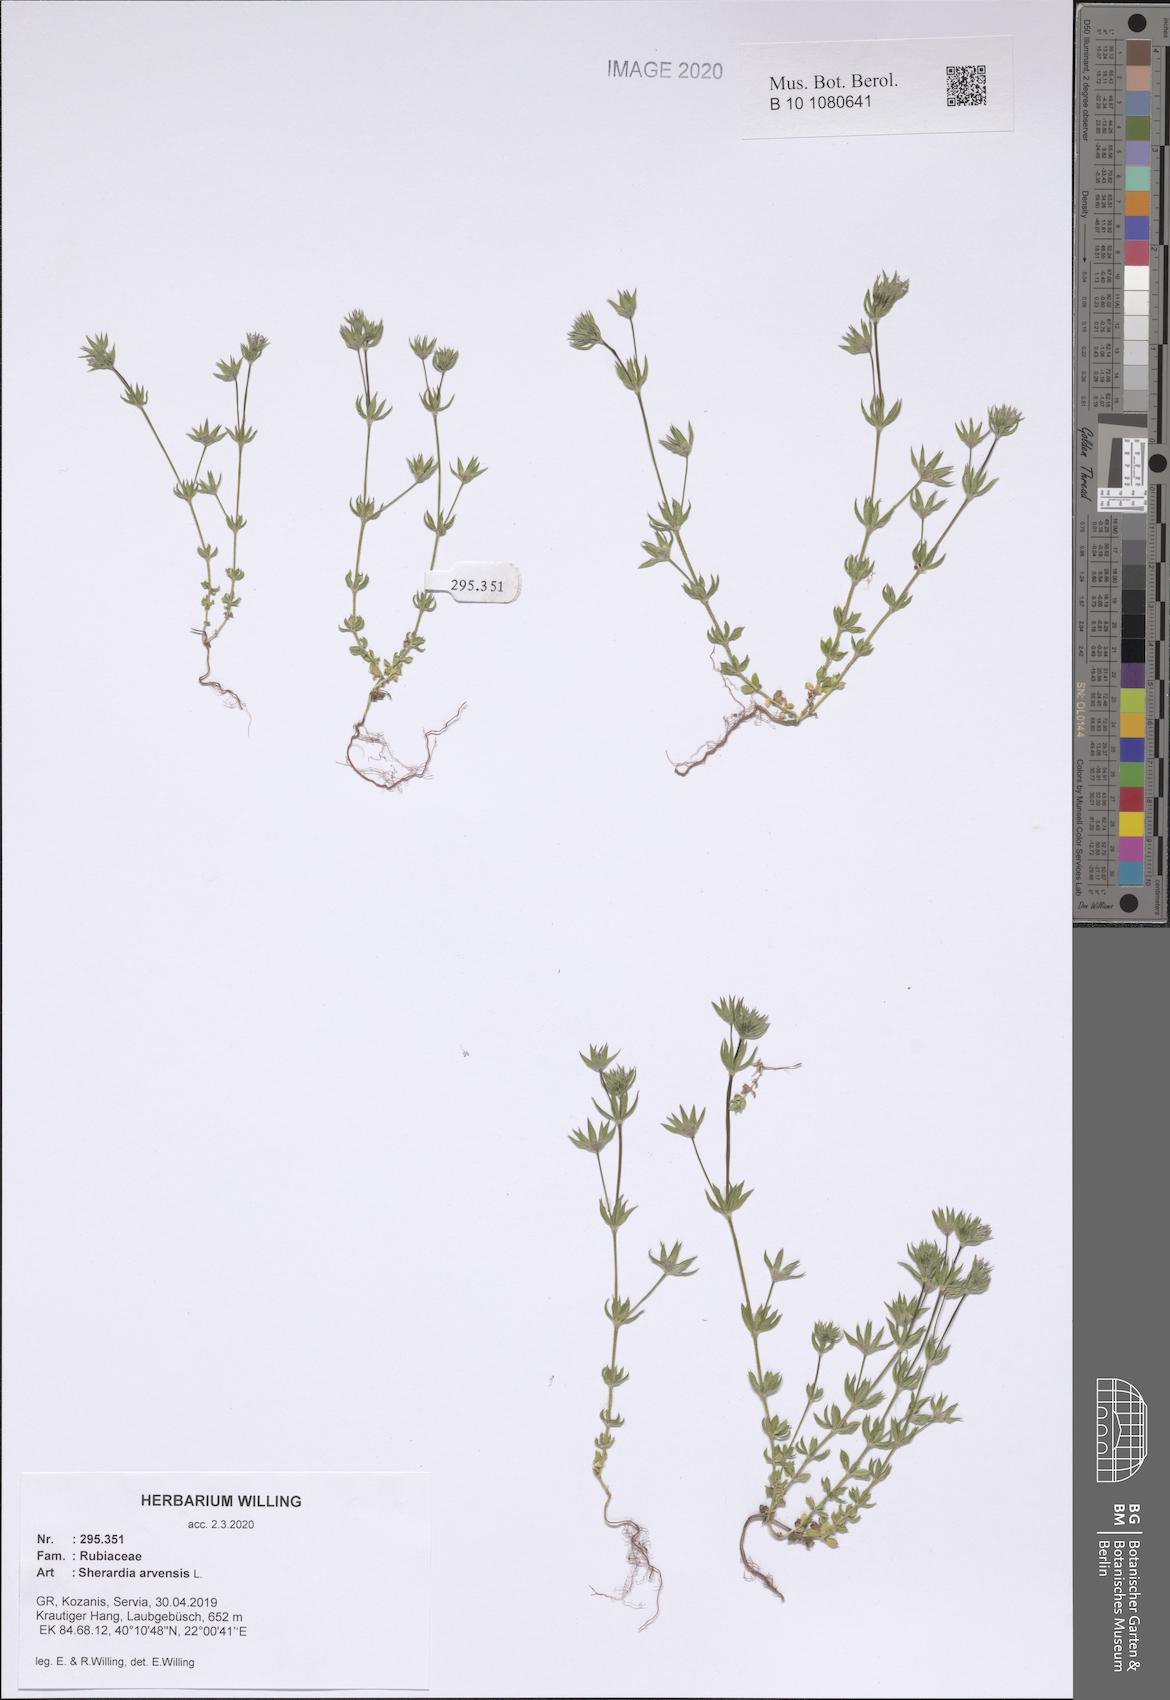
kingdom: Plantae
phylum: Tracheophyta
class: Magnoliopsida
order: Gentianales
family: Rubiaceae
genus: Sherardia
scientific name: Sherardia arvensis
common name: Field madder
